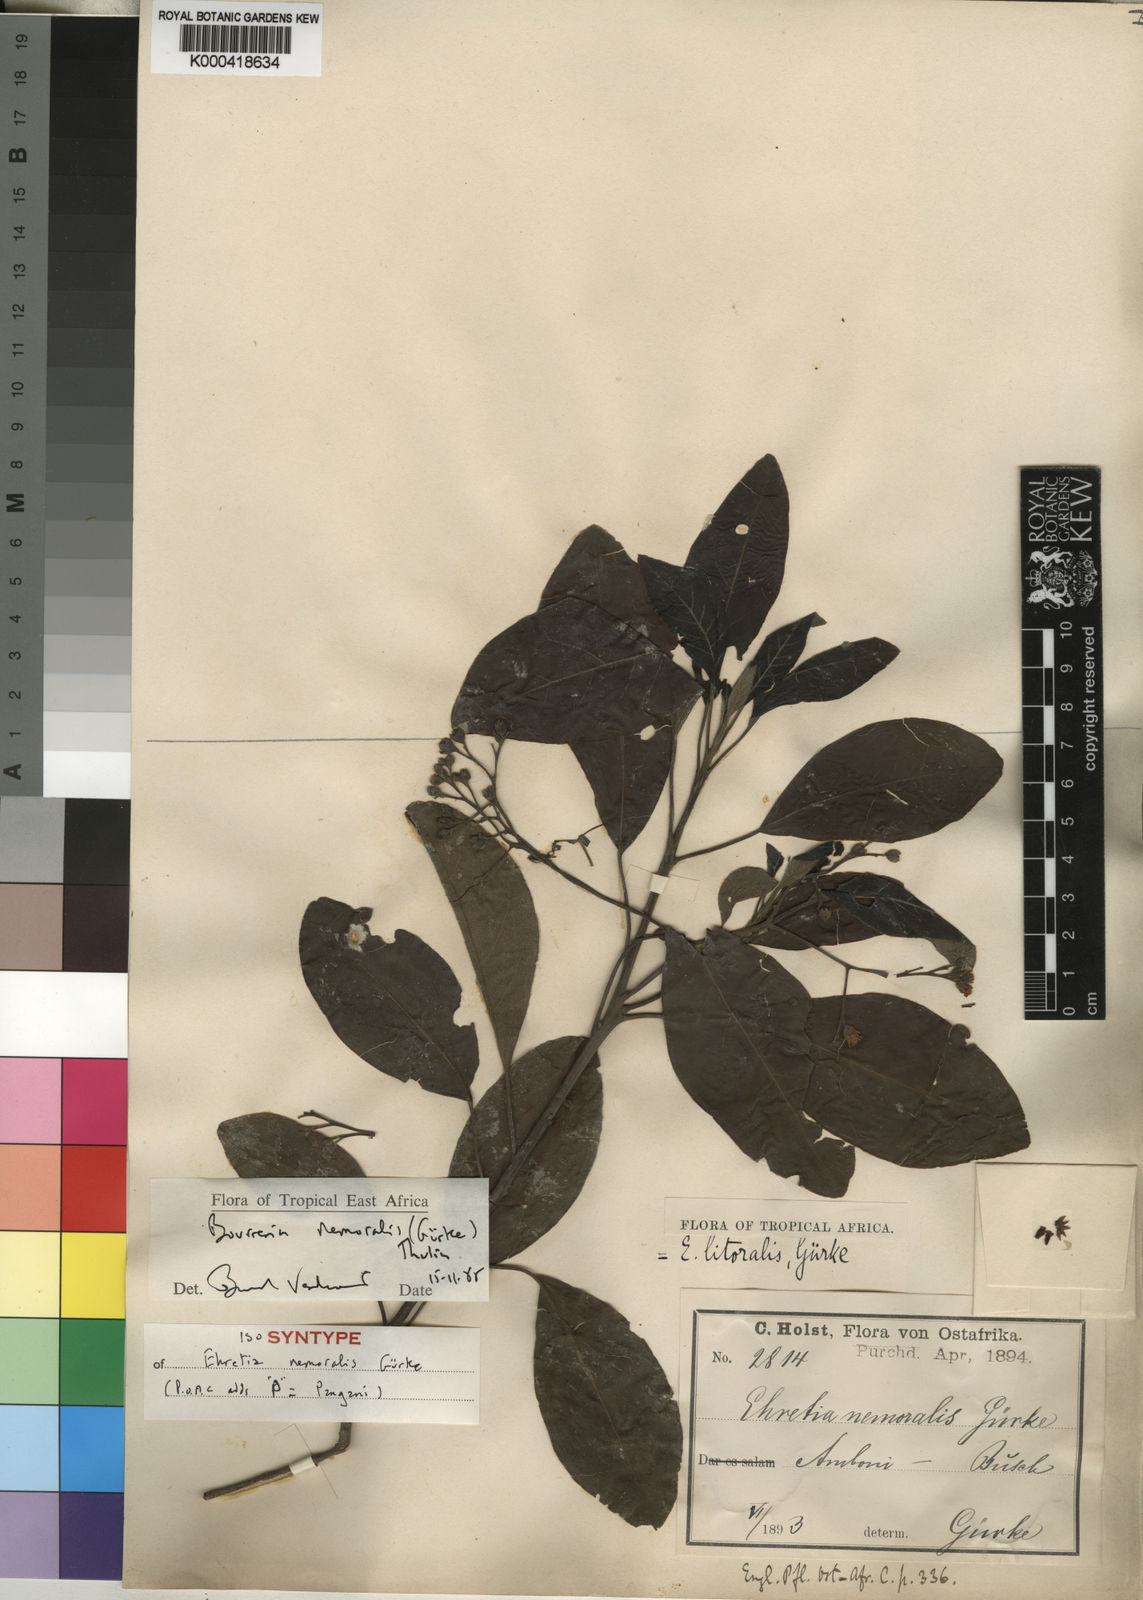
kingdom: Plantae
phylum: Tracheophyta
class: Magnoliopsida
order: Boraginales
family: Ehretiaceae
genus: Bourreria
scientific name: Bourreria
